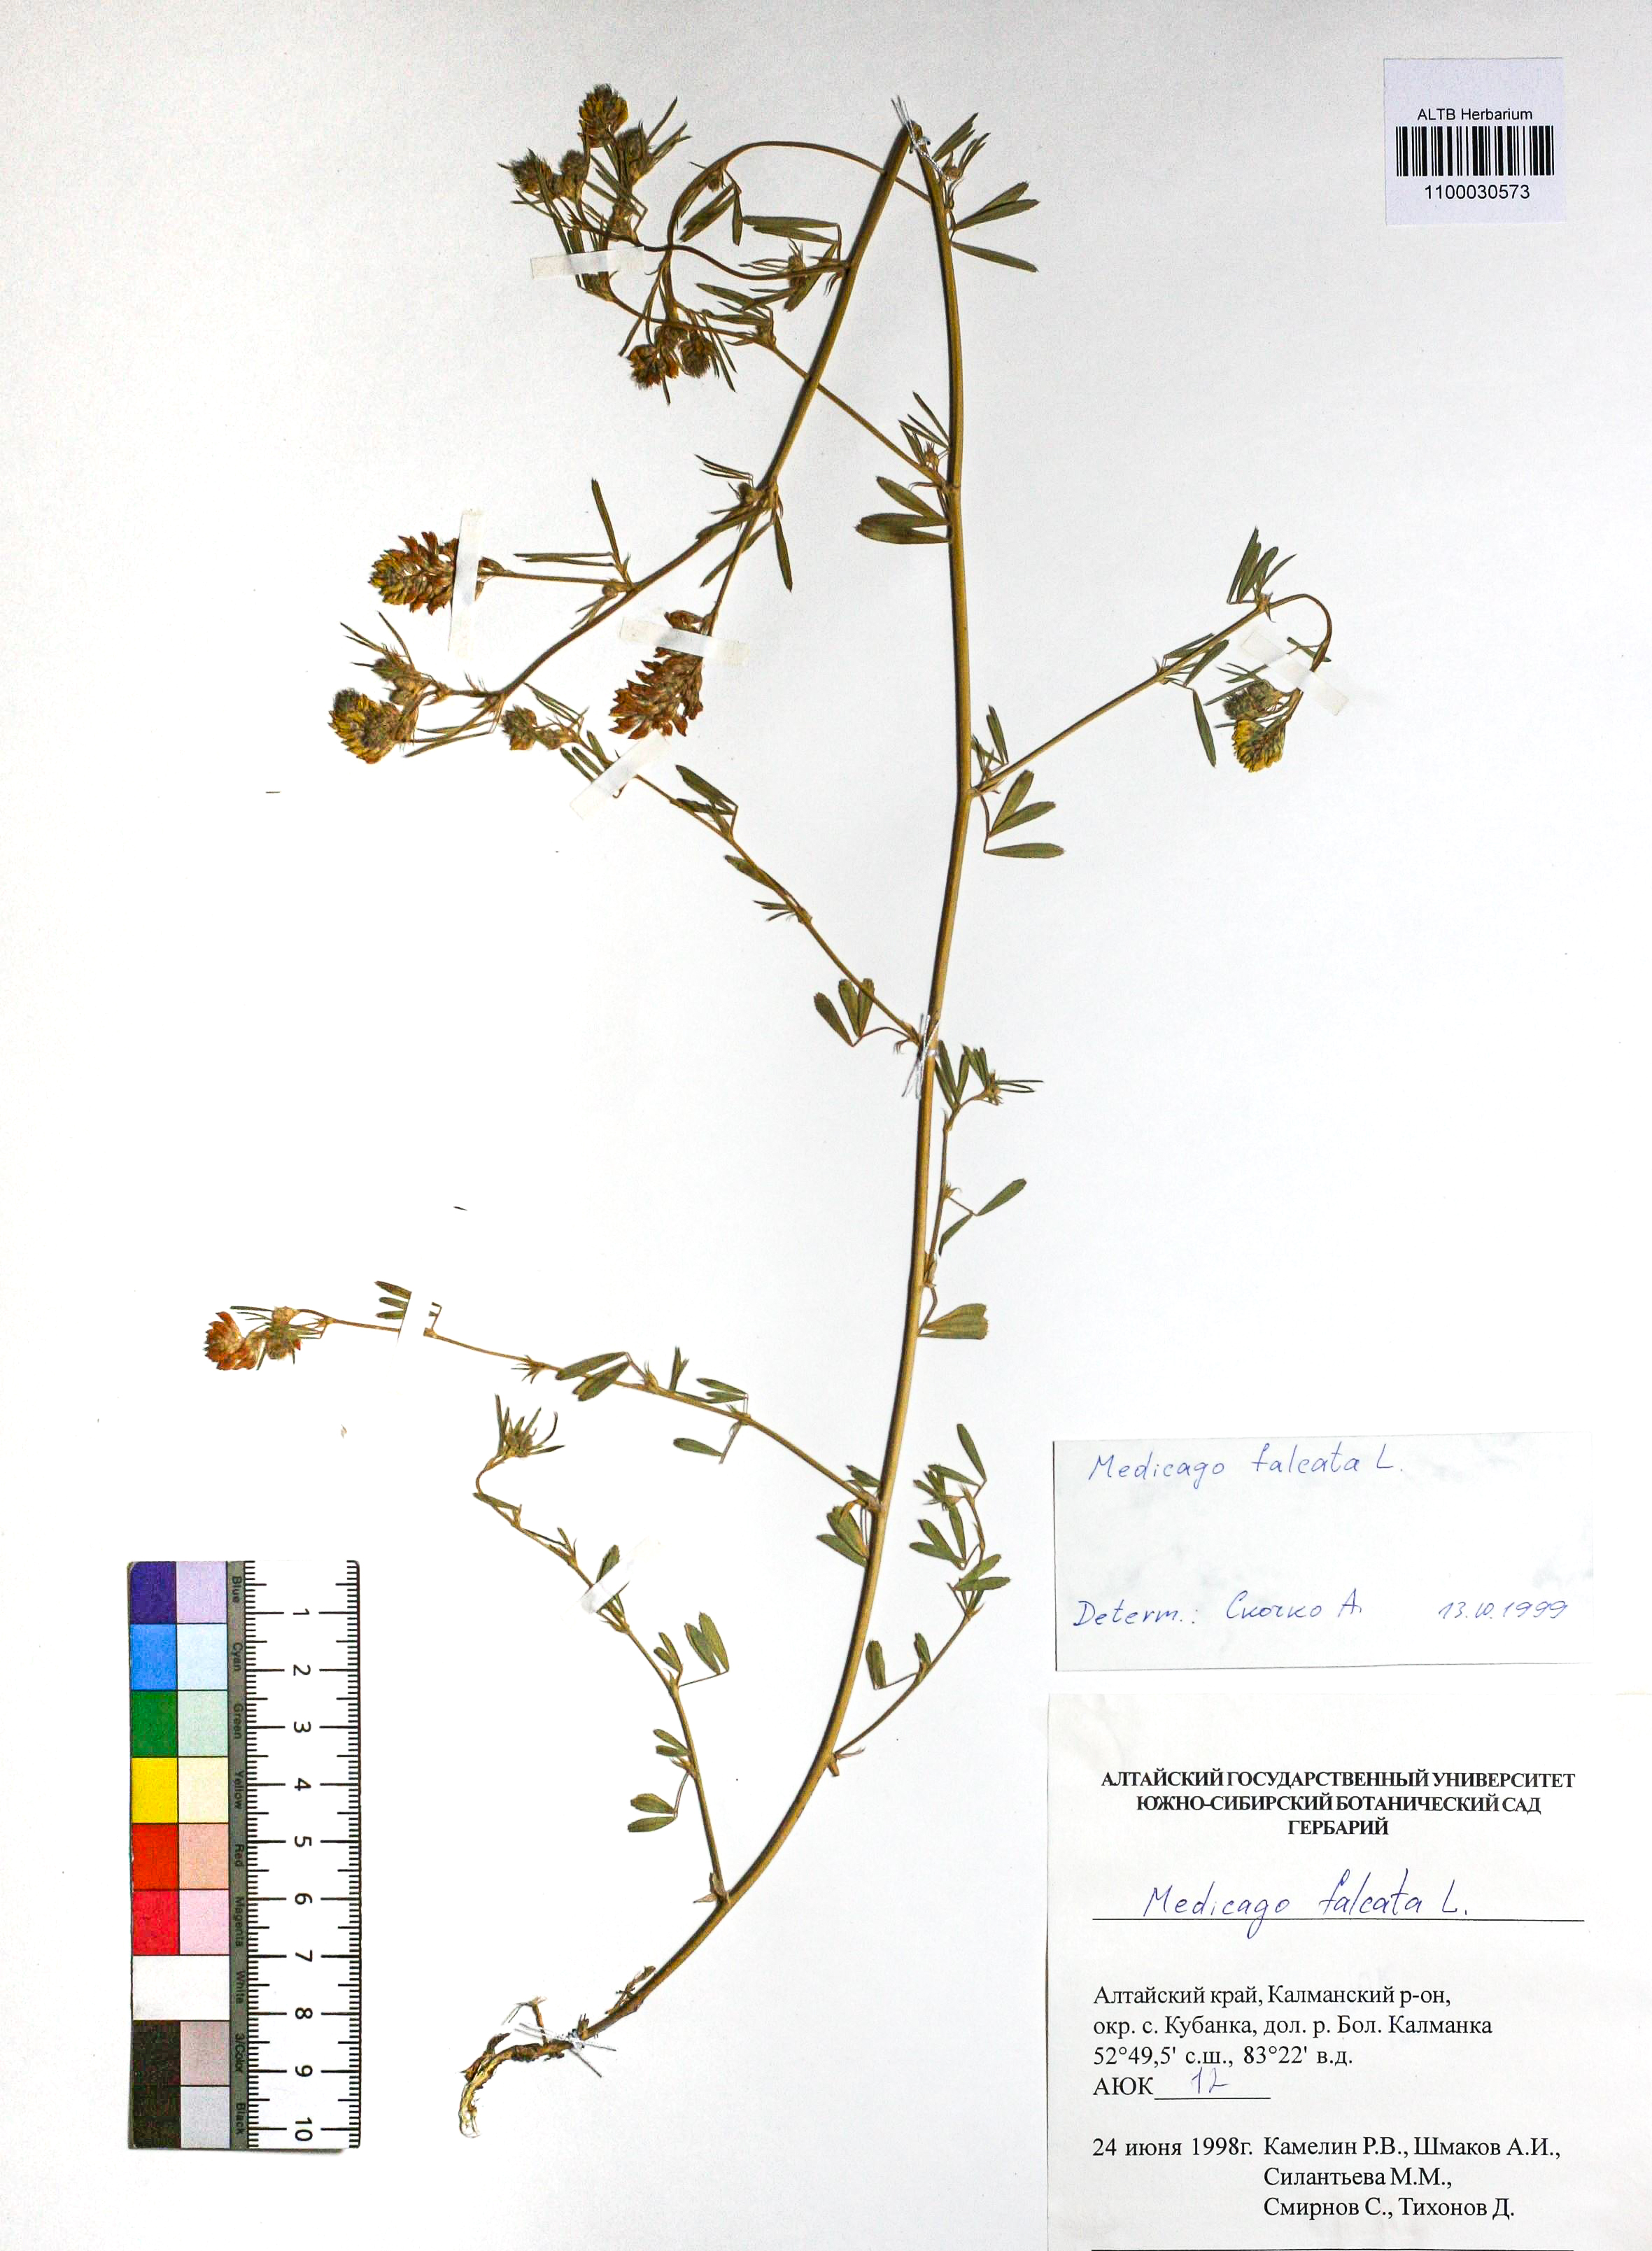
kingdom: Plantae
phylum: Tracheophyta
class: Magnoliopsida
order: Fabales
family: Fabaceae
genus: Medicago
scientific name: Medicago falcata
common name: Sickle medick
